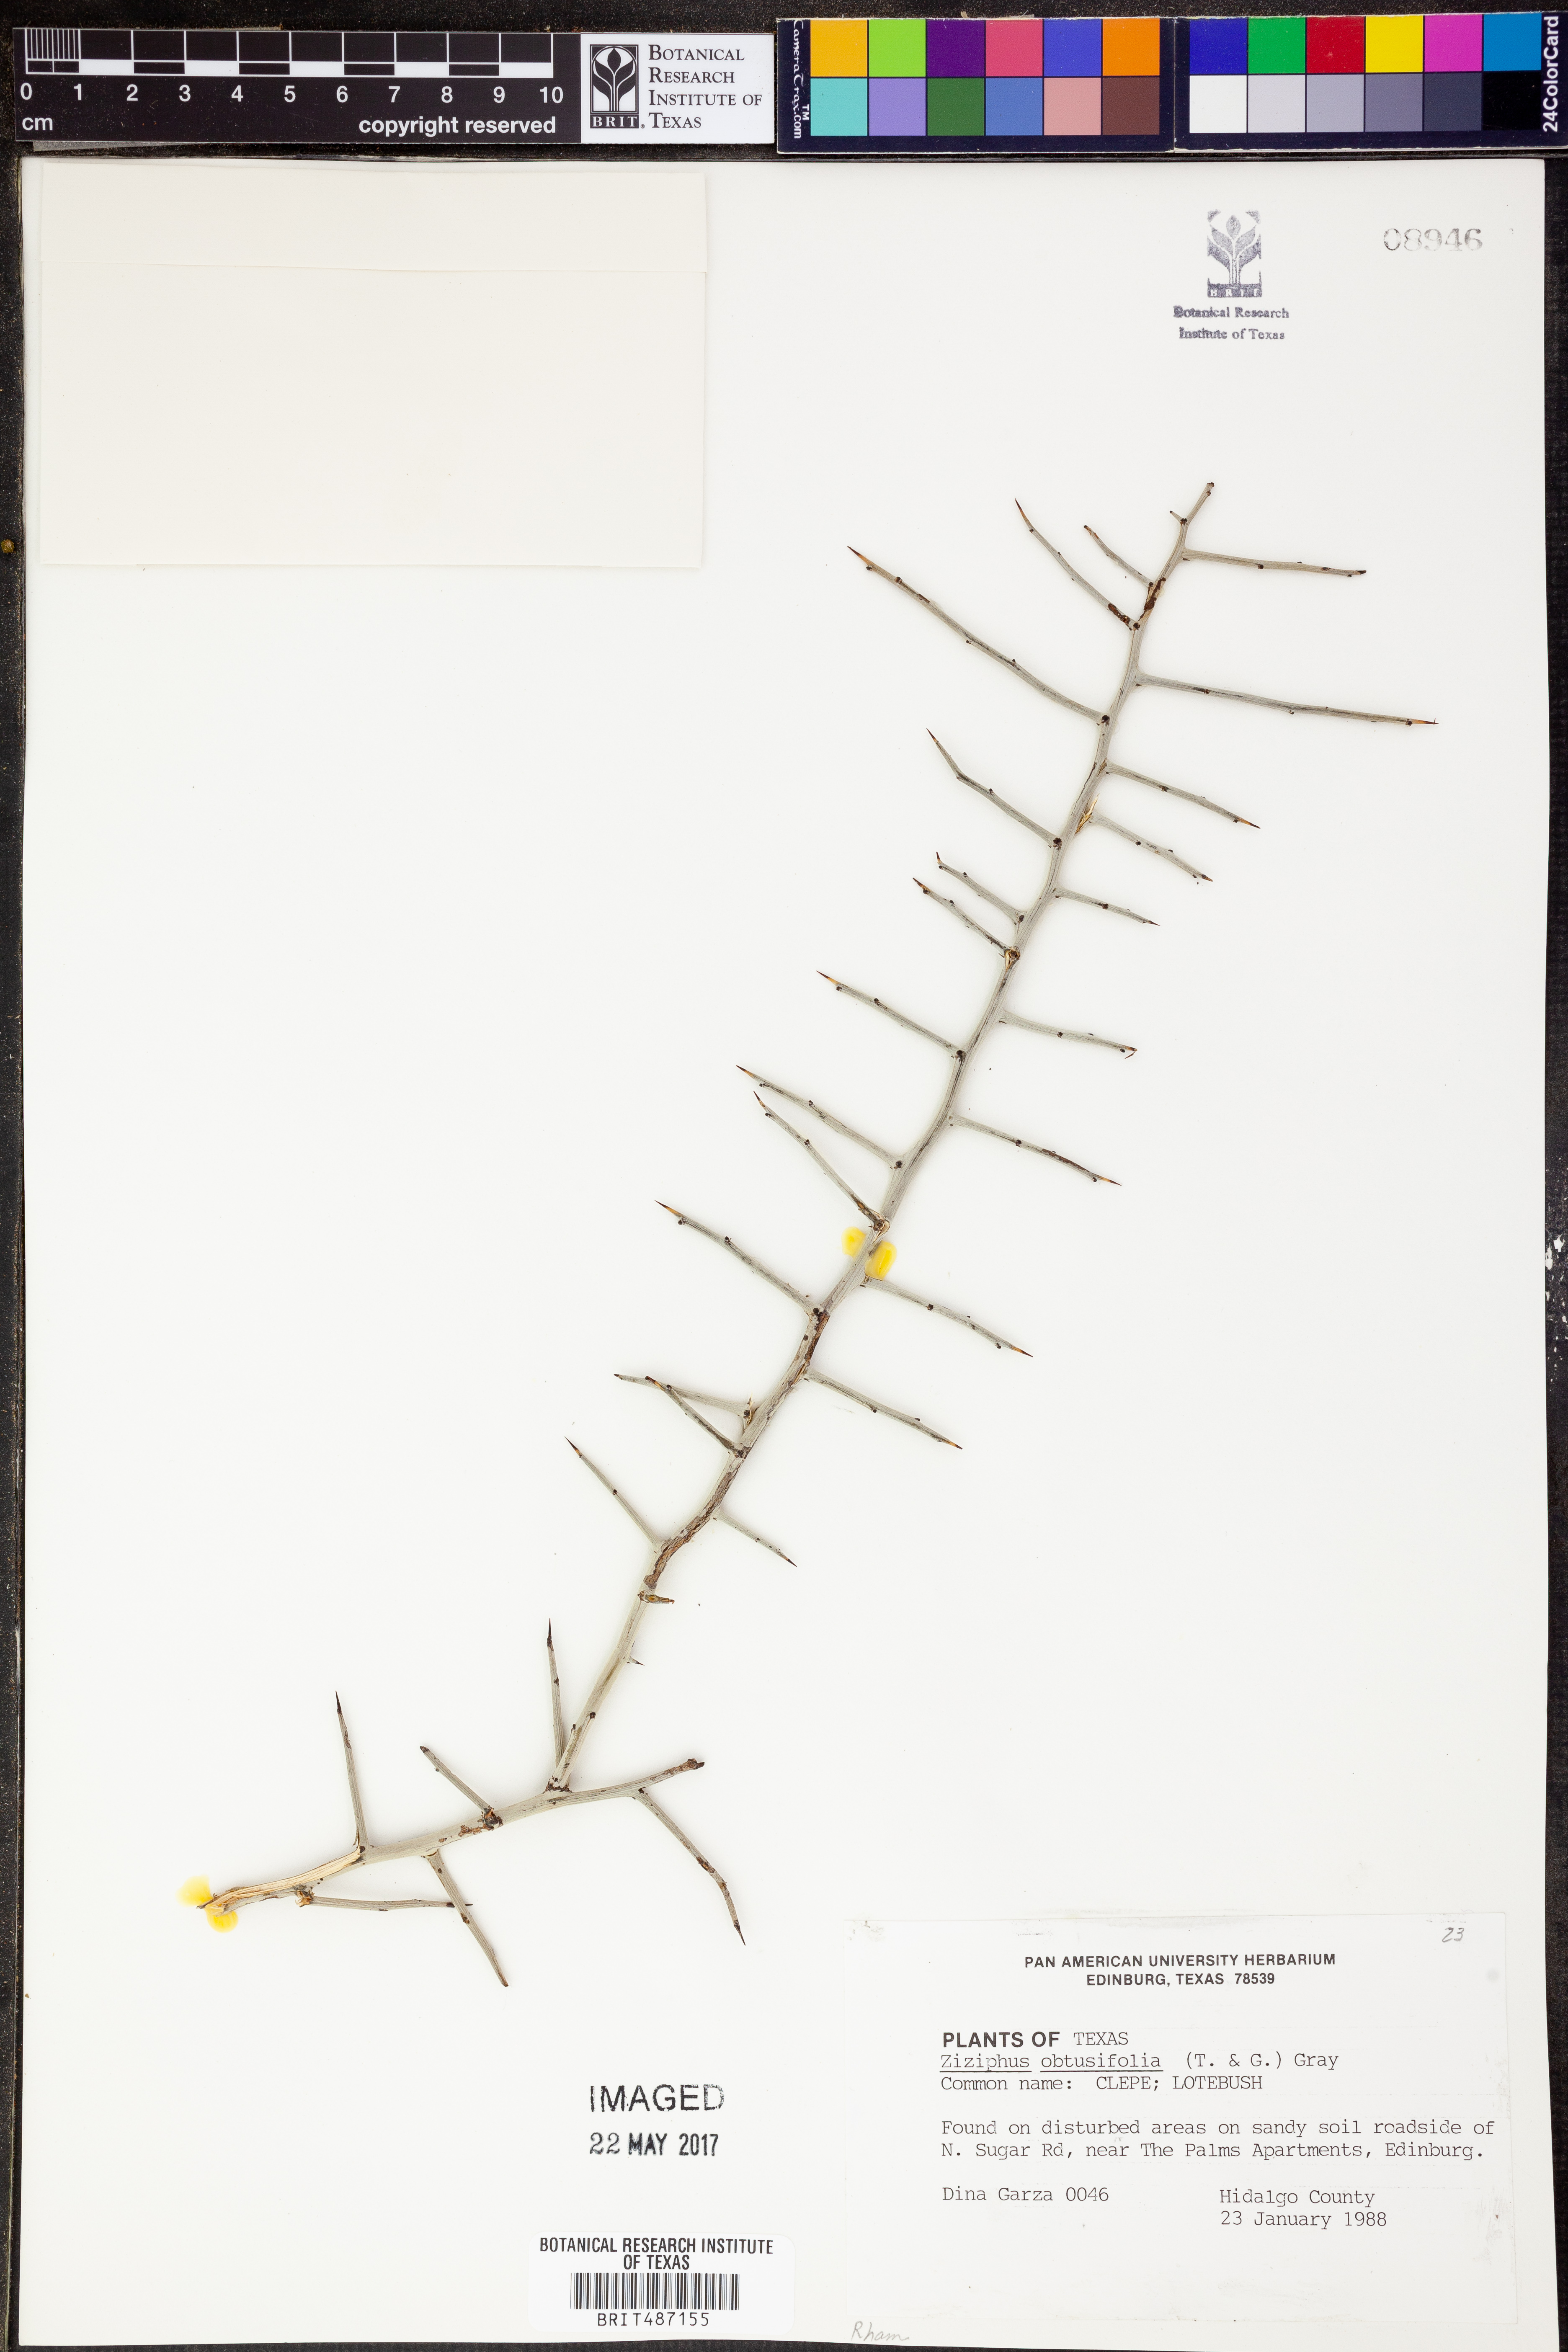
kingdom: Plantae
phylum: Tracheophyta
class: Magnoliopsida
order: Rosales
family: Rhamnaceae
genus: Sarcomphalus
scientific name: Sarcomphalus obtusifolius
